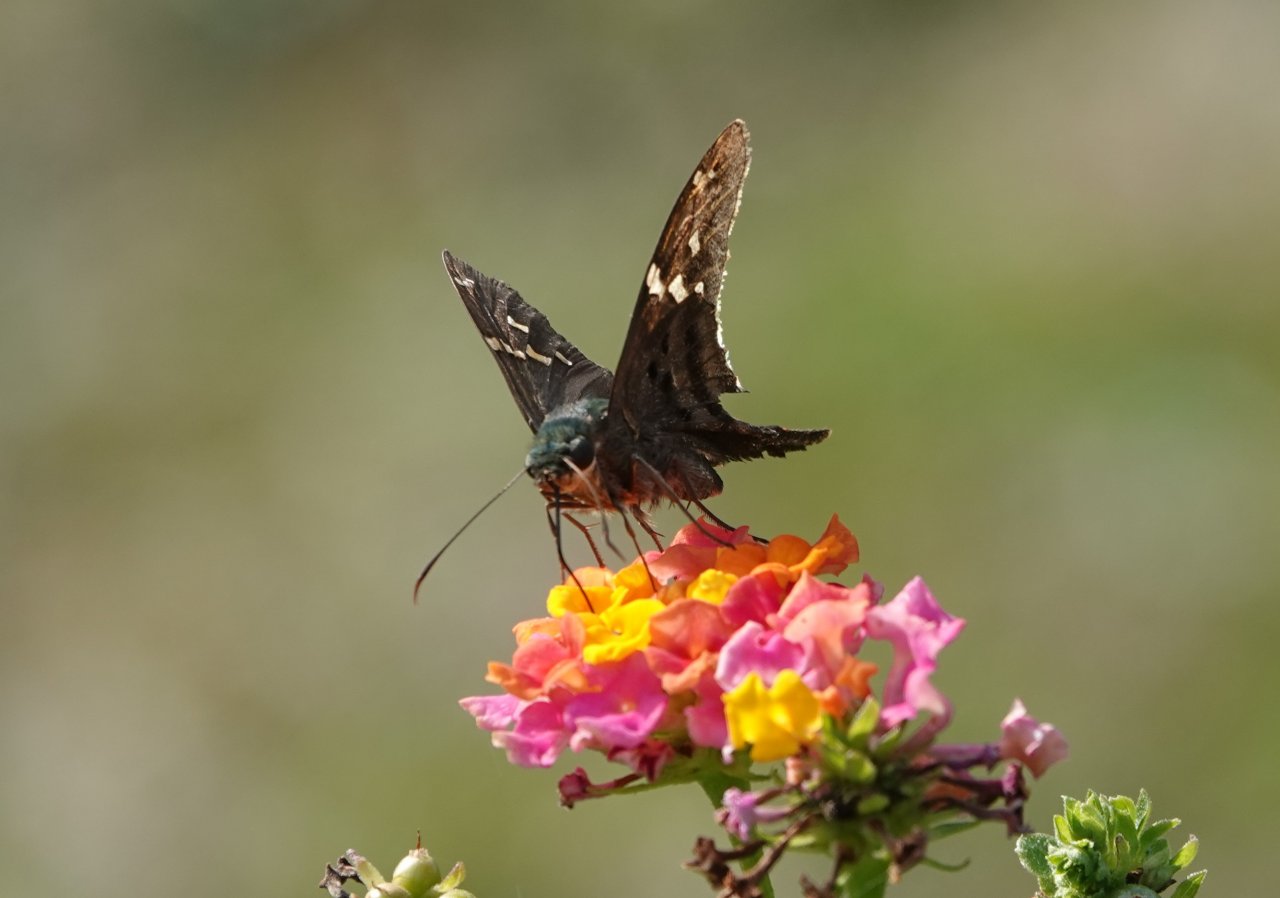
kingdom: Animalia
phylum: Arthropoda
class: Insecta
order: Lepidoptera
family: Hesperiidae
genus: Urbanus
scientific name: Urbanus proteus
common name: Long-tailed Skipper
